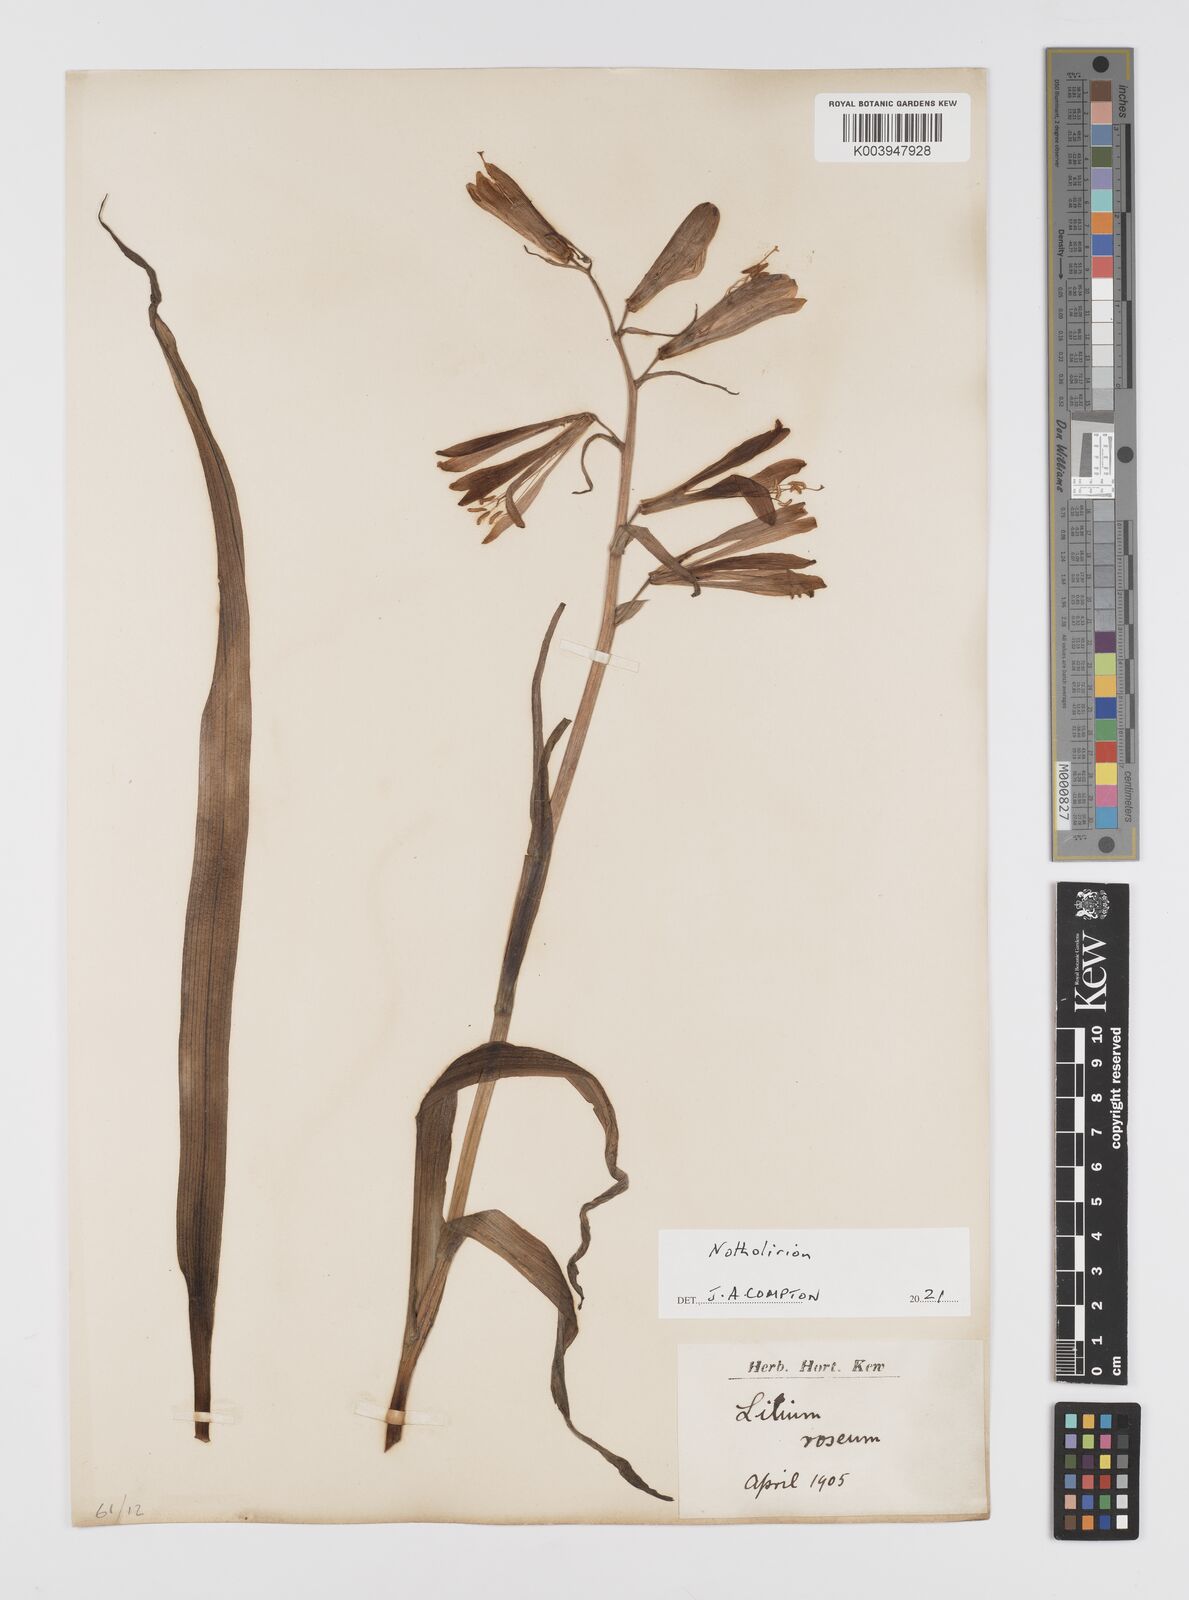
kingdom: Plantae
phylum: Tracheophyta
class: Liliopsida
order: Liliales
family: Liliaceae
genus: Notholirion
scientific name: Notholirion thomsonianum
